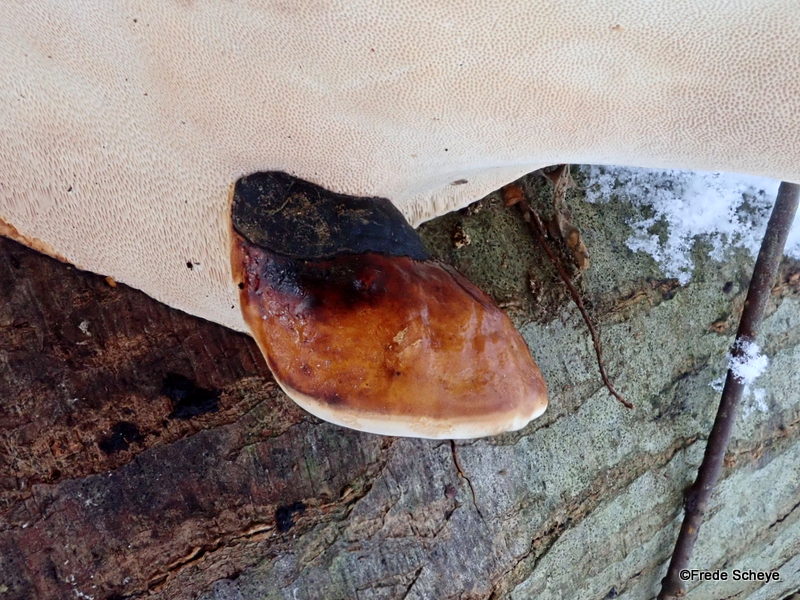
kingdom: Fungi
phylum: Basidiomycota
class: Agaricomycetes
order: Polyporales
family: Fomitopsidaceae
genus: Fomitopsis
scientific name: Fomitopsis pinicola
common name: randbæltet hovporesvamp
